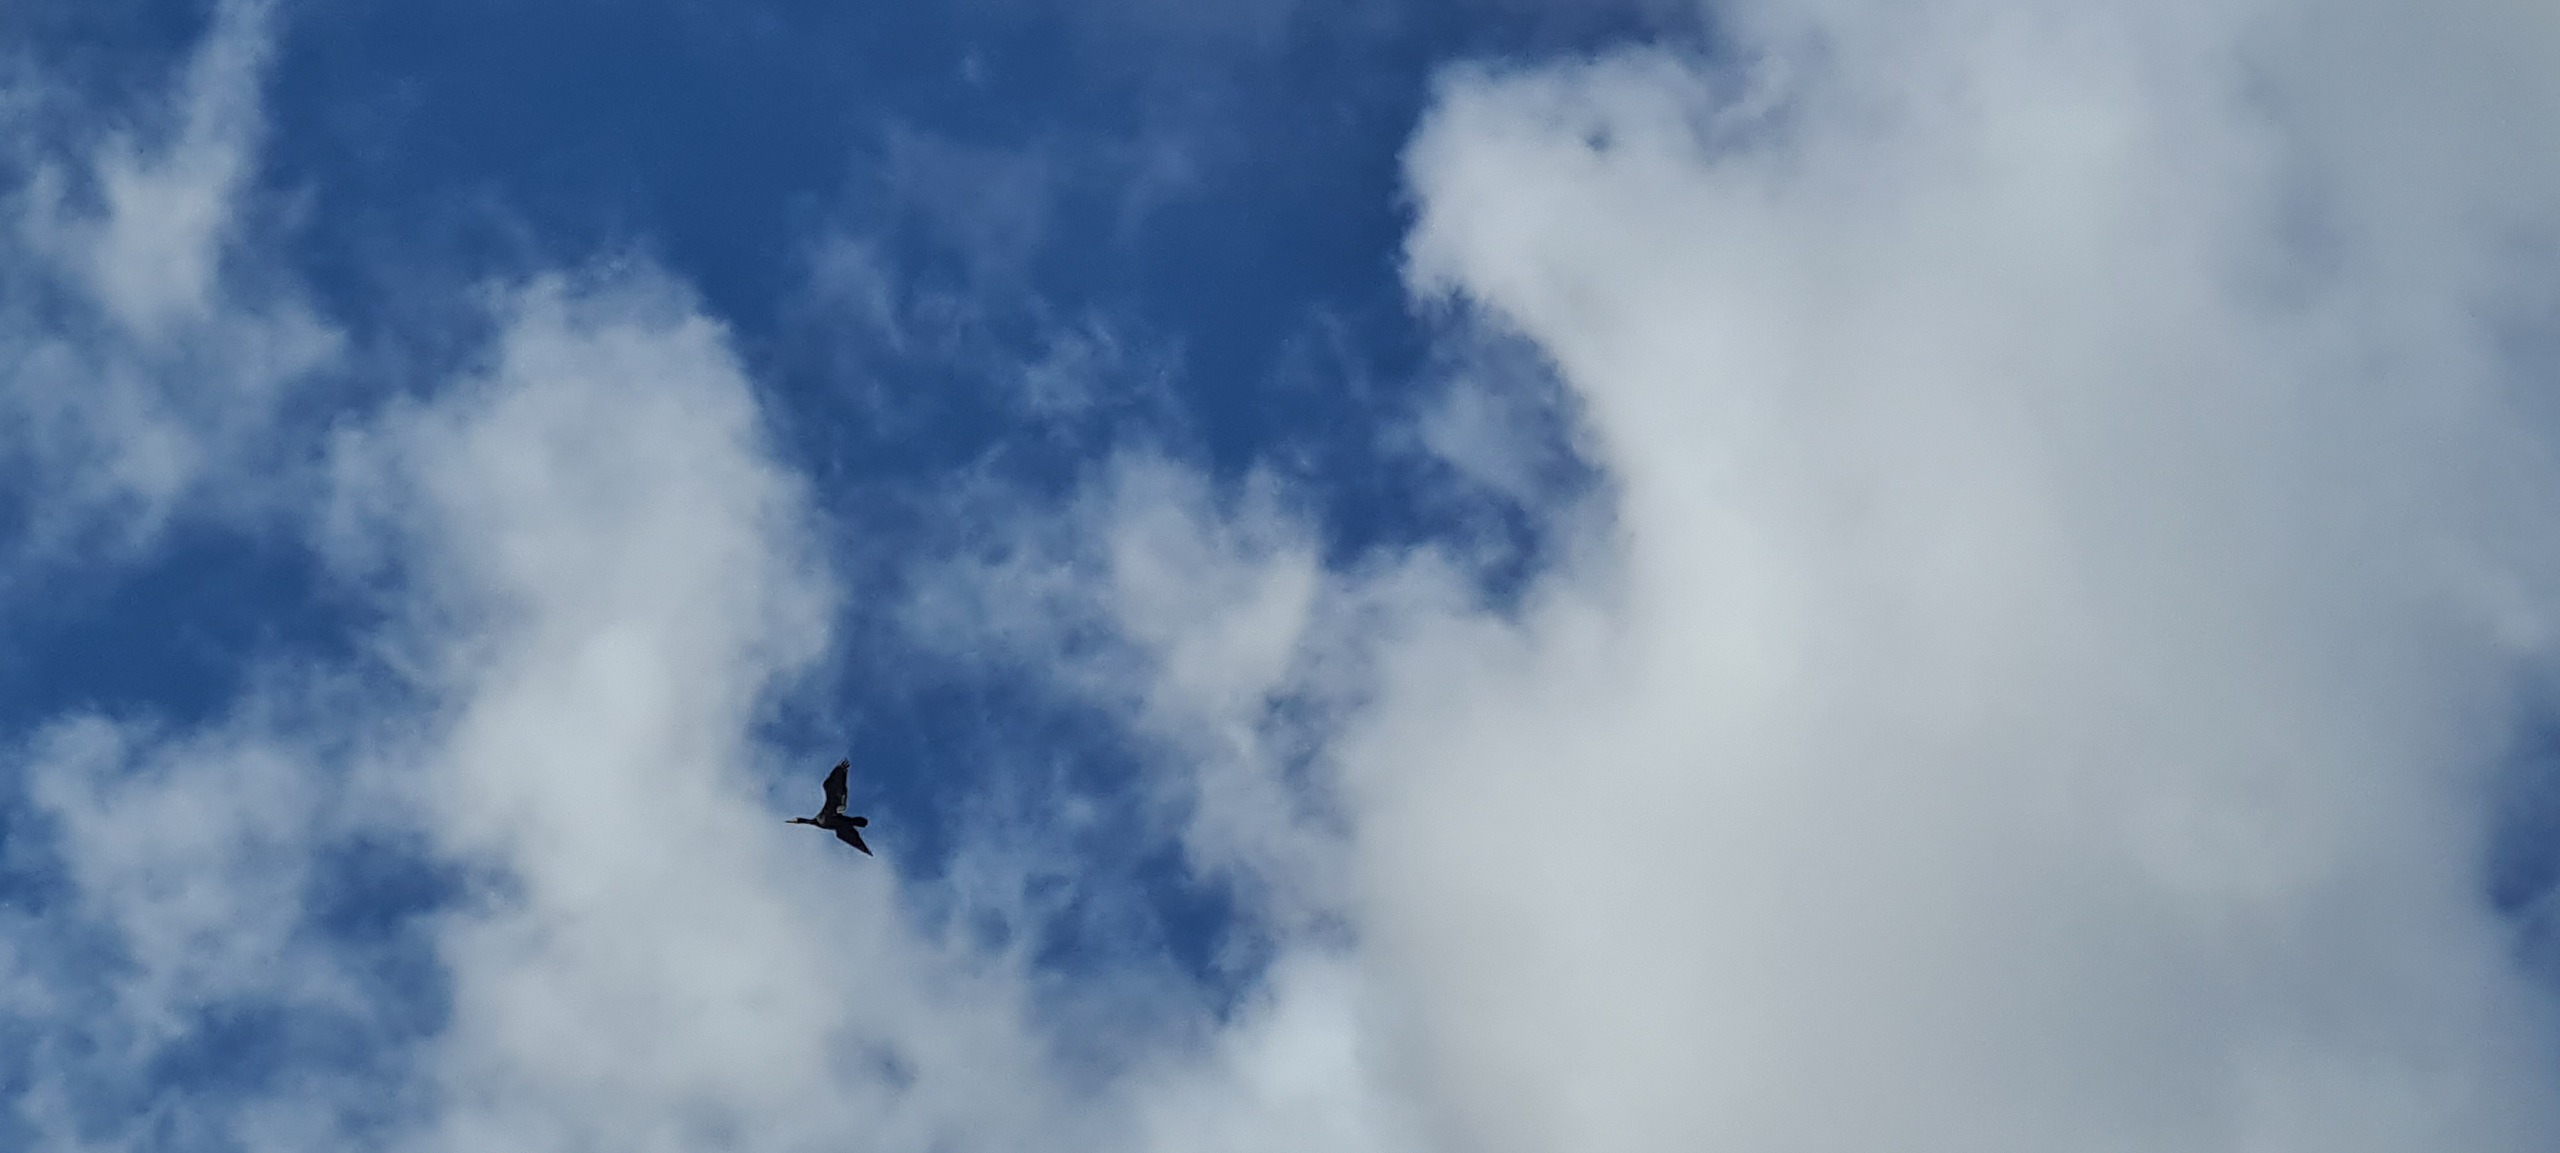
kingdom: Animalia
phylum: Chordata
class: Aves
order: Suliformes
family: Phalacrocoracidae
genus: Phalacrocorax
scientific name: Phalacrocorax carbo
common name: Skarv
